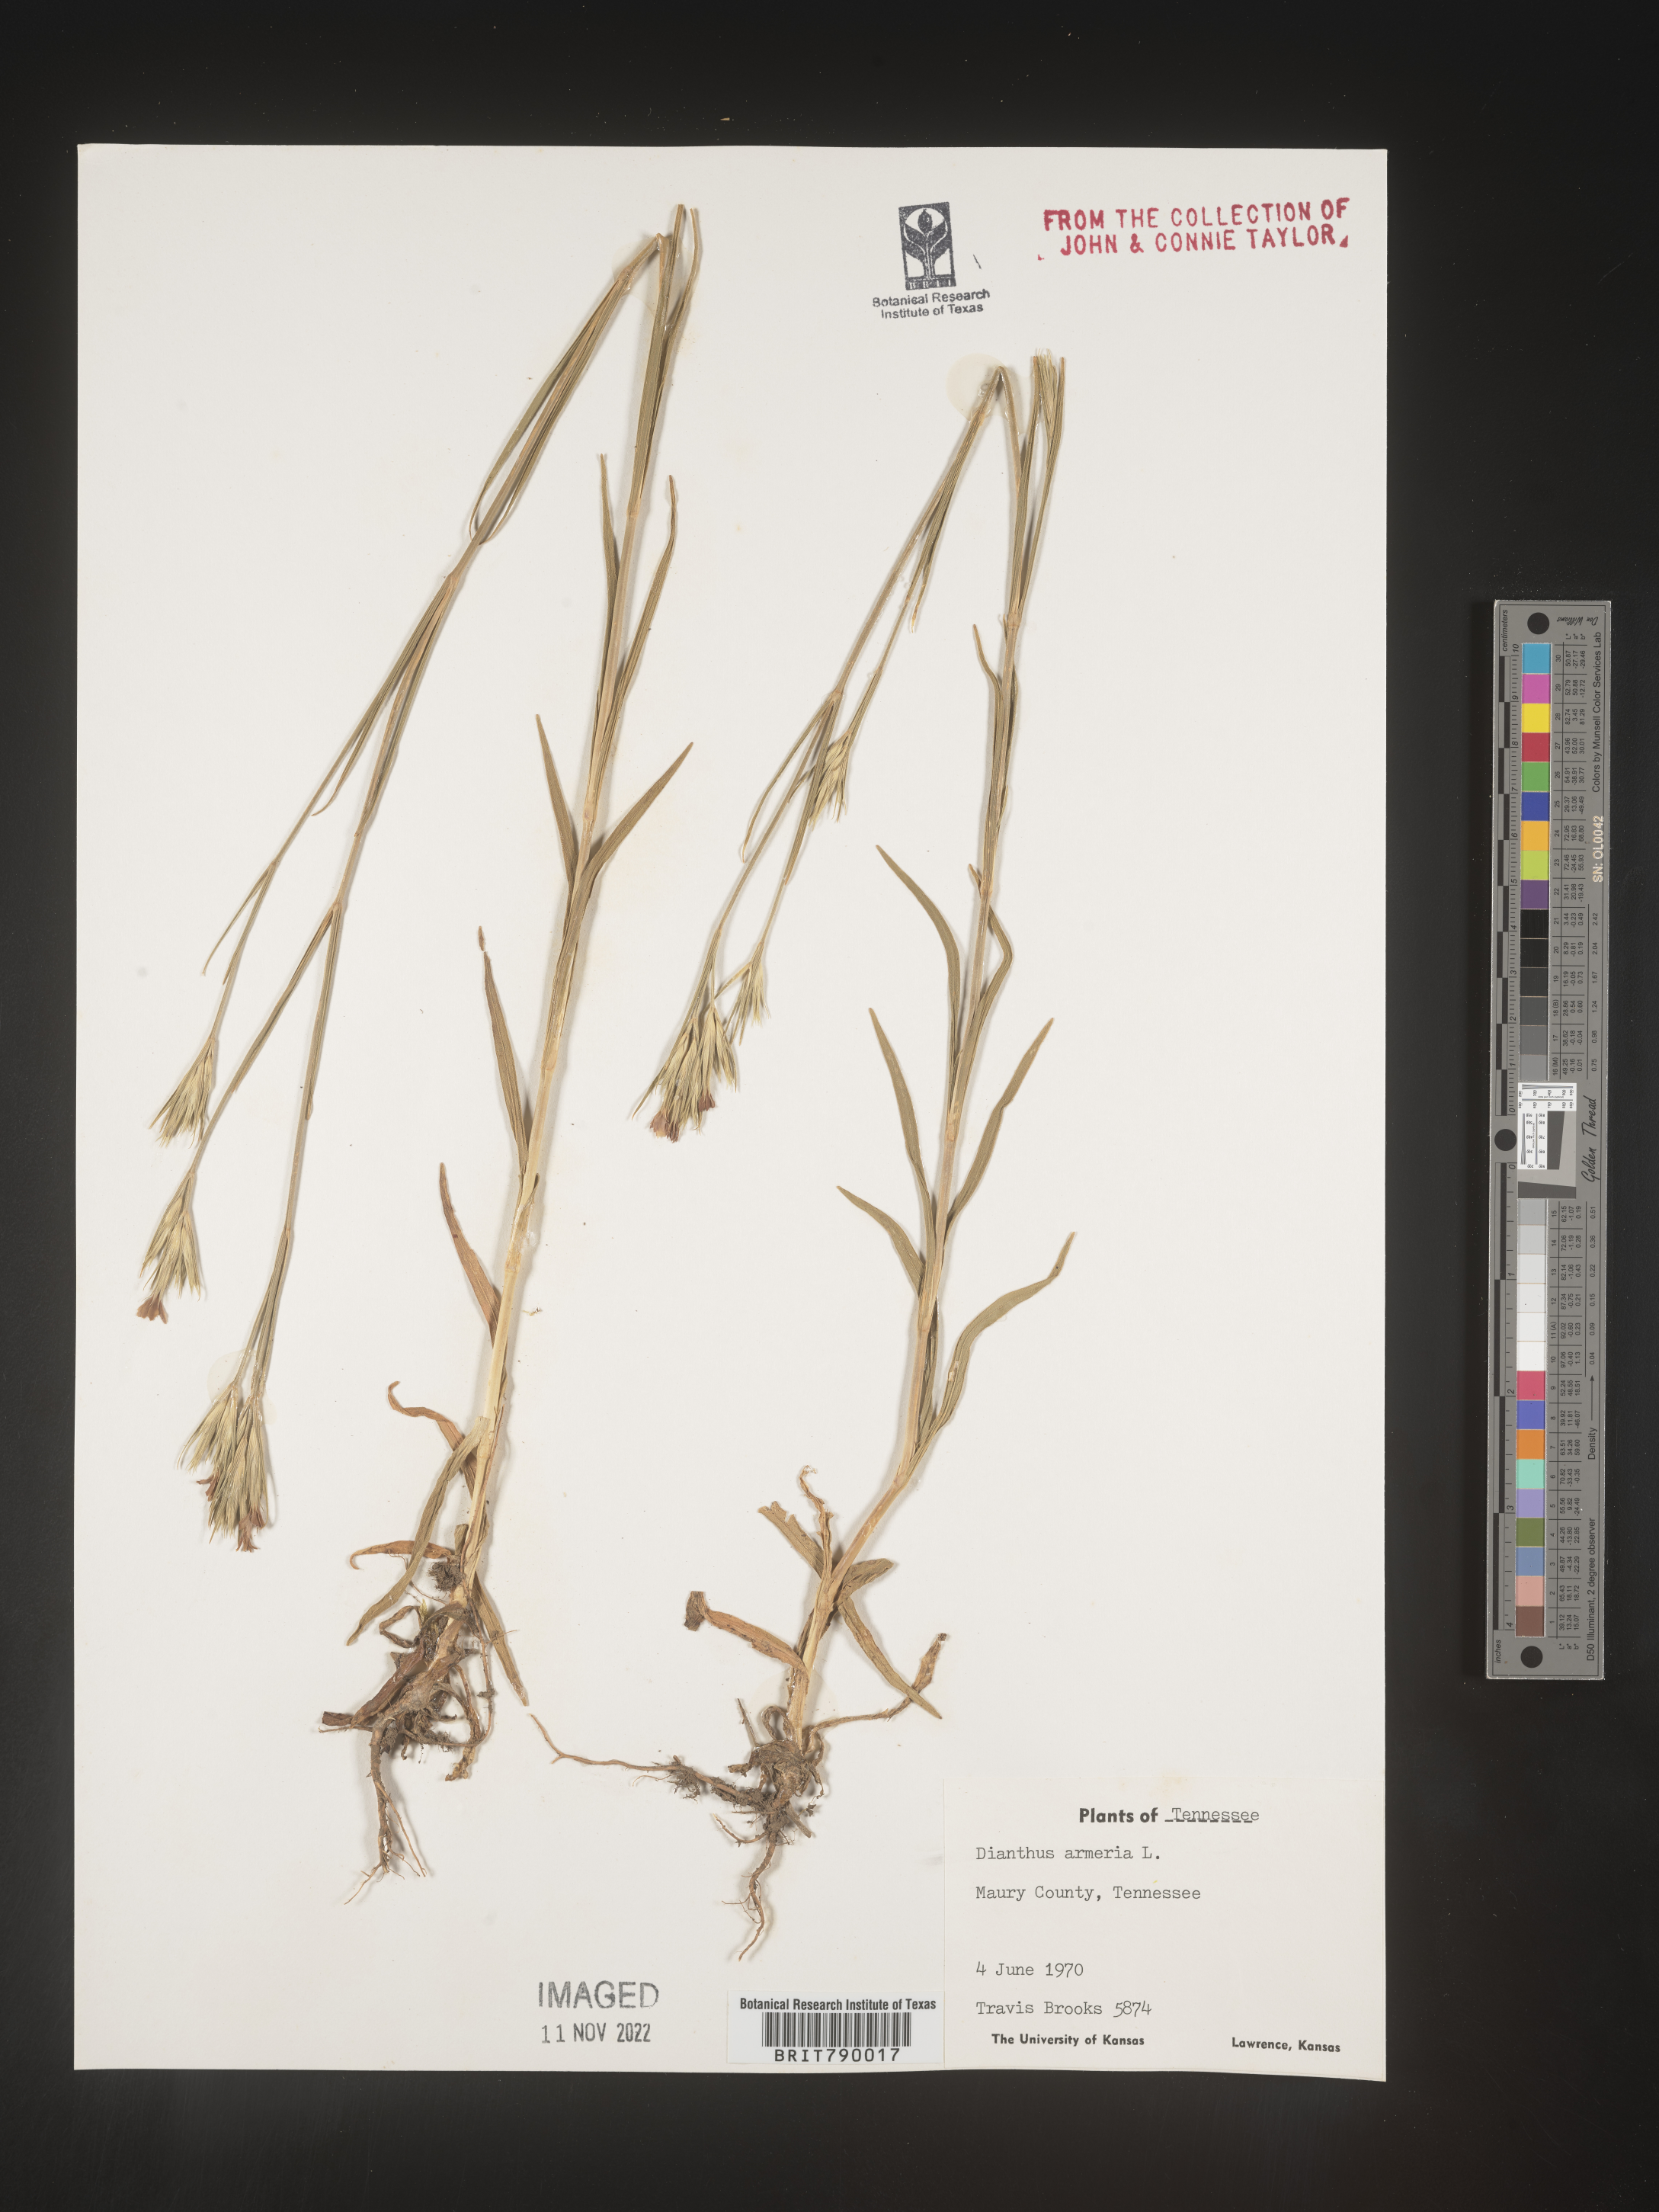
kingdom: Plantae
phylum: Tracheophyta
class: Magnoliopsida
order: Caryophyllales
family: Caryophyllaceae
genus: Dianthus
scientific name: Dianthus armeria
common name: Deptford pink
